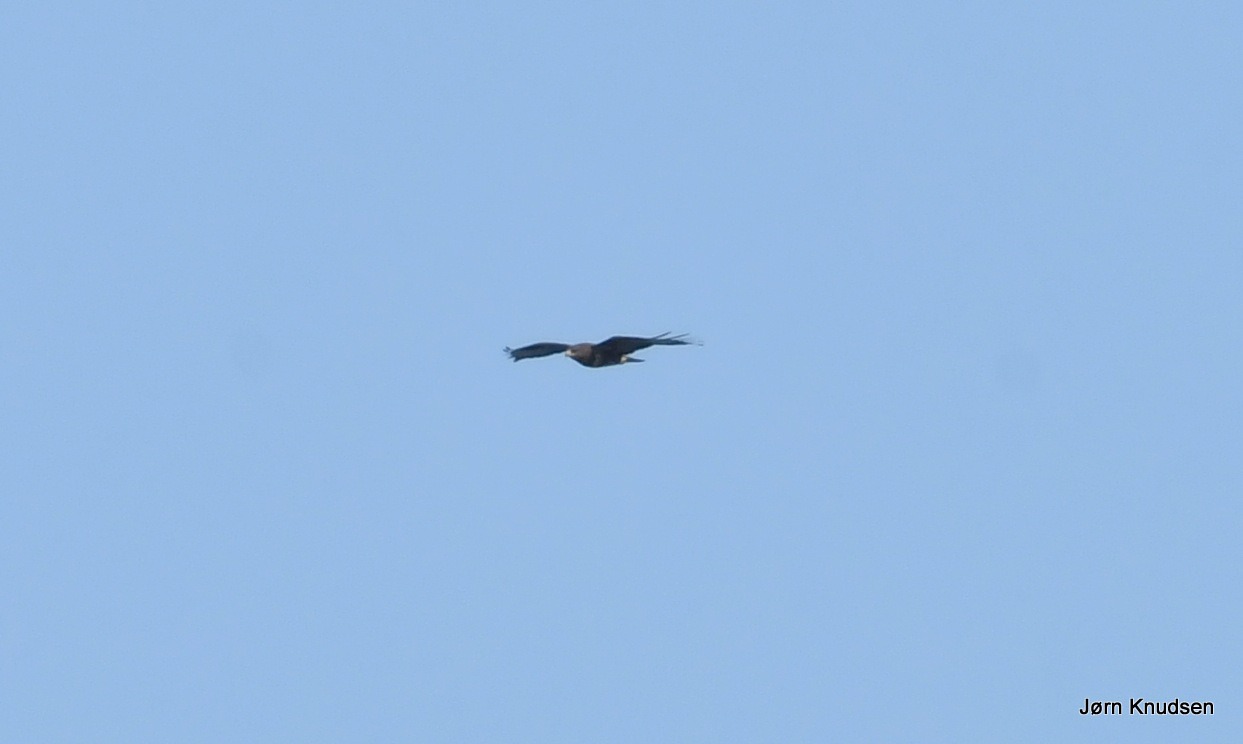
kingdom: Animalia
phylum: Chordata
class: Aves
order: Accipitriformes
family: Accipitridae
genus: Buteo
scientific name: Buteo buteo
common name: Musvåge
